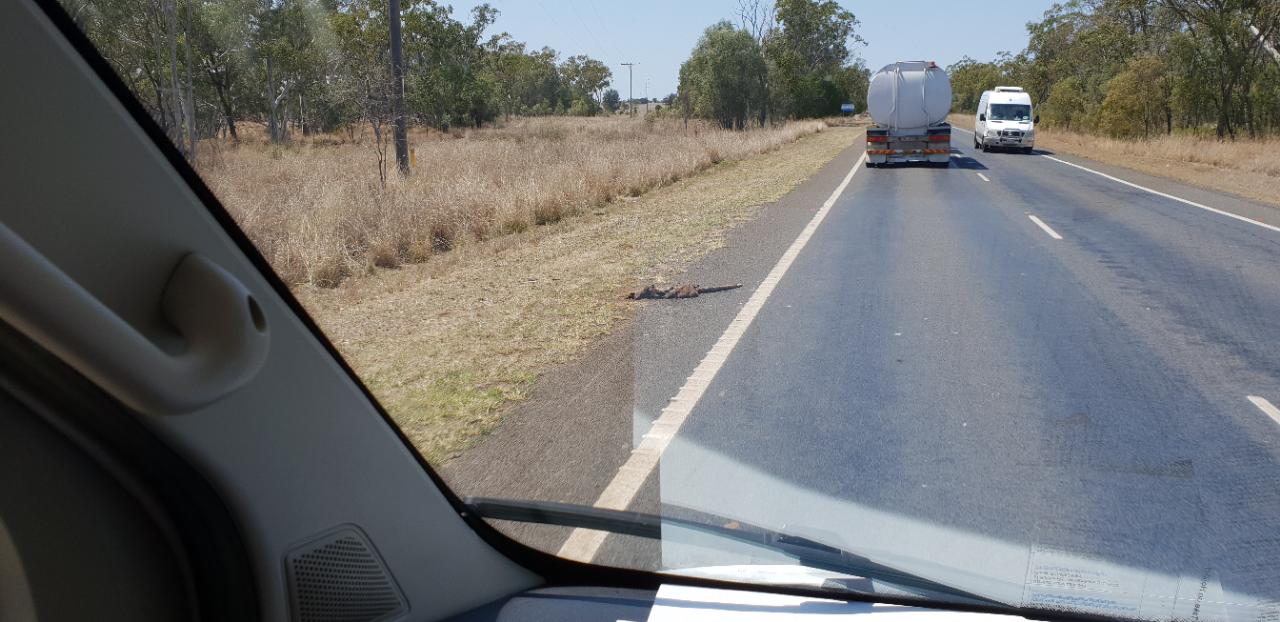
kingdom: Animalia
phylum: Chordata
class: Mammalia
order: Diprotodontia
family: Macropodidae
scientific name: Macropodidae
